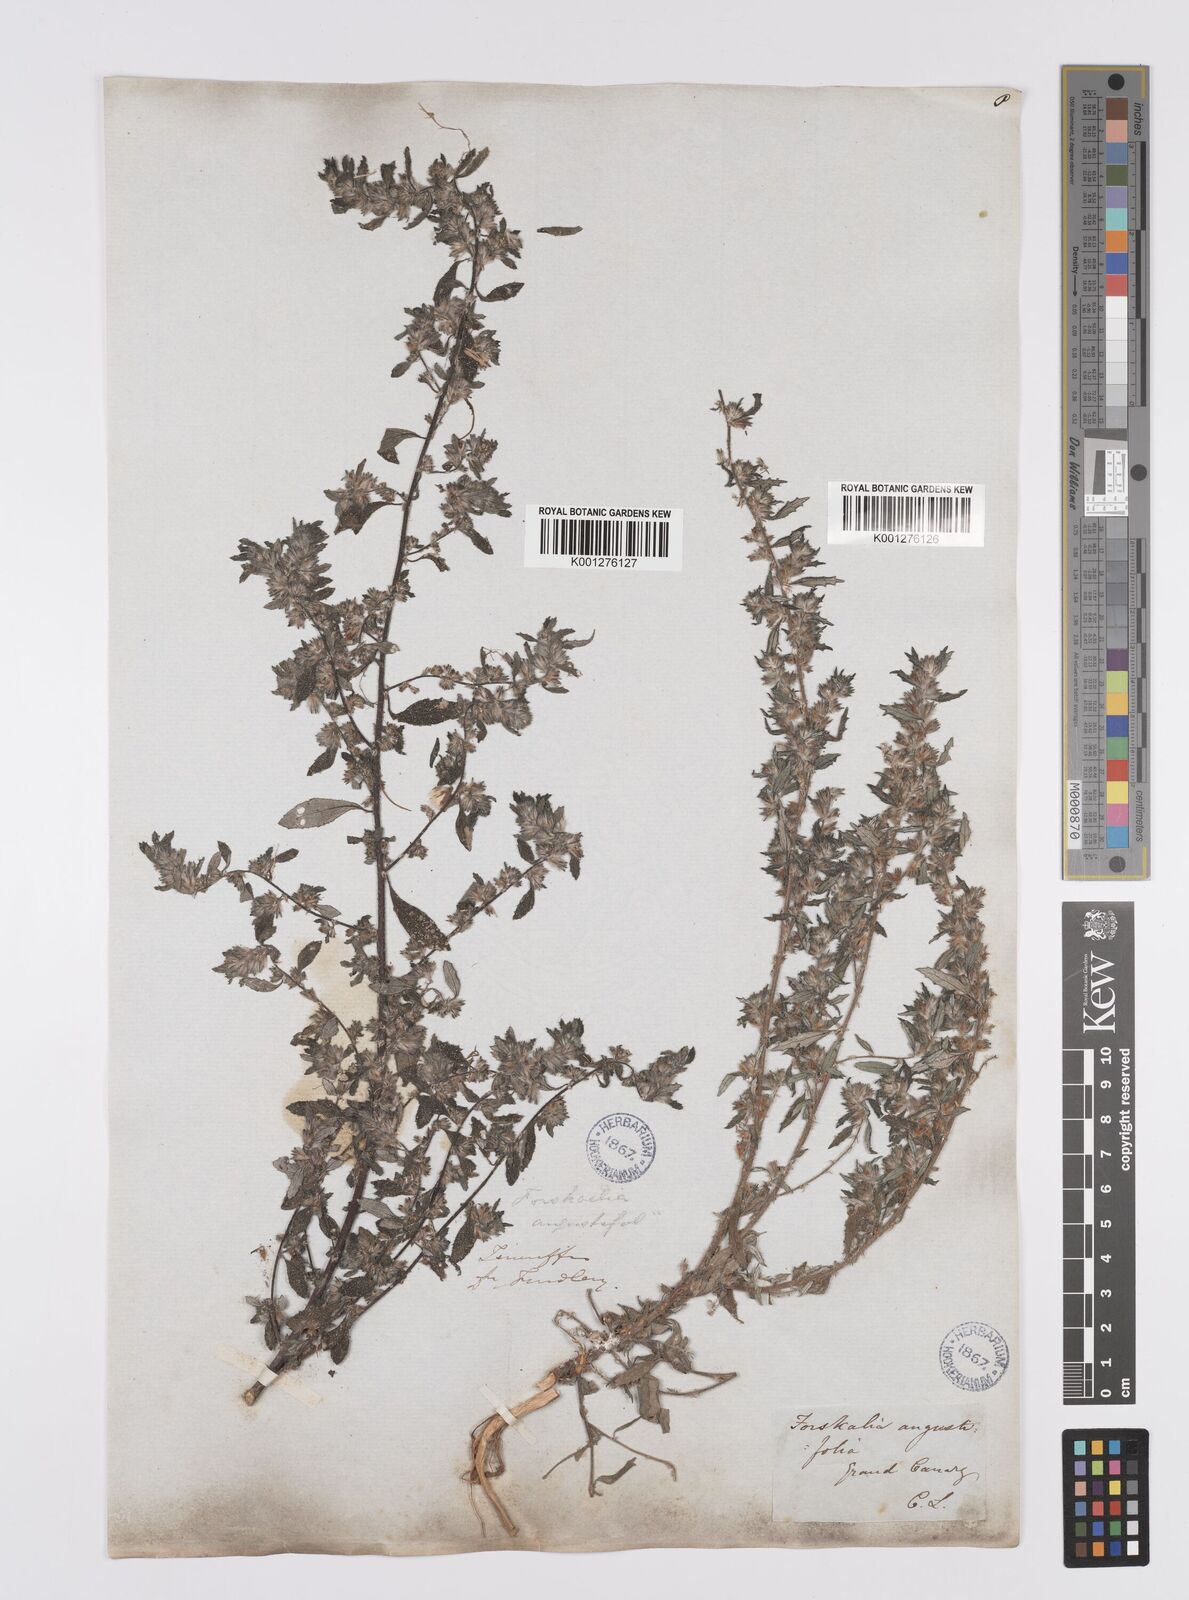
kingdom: Plantae
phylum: Tracheophyta
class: Magnoliopsida
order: Rosales
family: Urticaceae
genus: Forsskaolea
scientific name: Forsskaolea angustifolia
